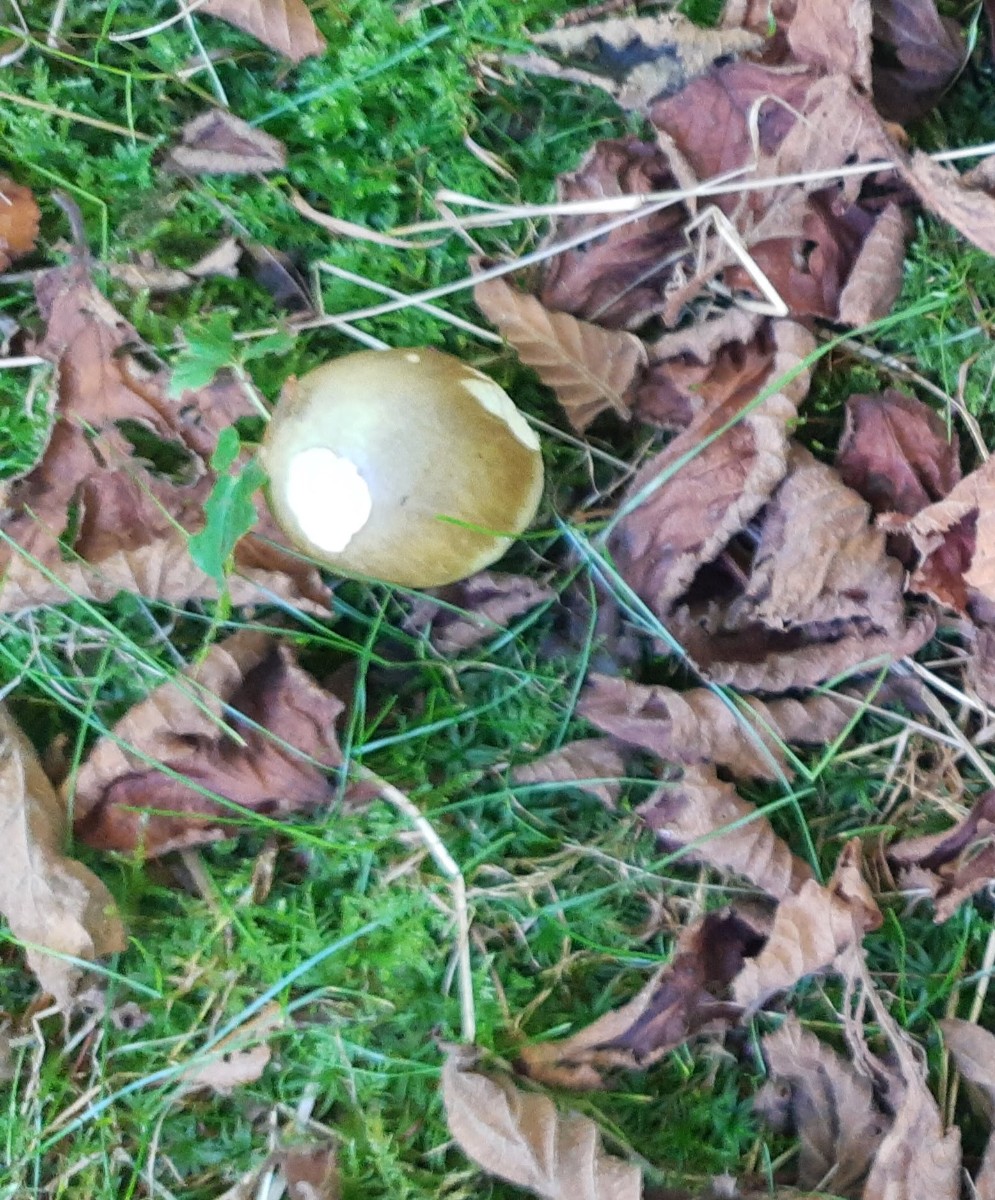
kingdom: Fungi
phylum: Basidiomycota
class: Agaricomycetes
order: Agaricales
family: Amanitaceae
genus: Amanita
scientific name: Amanita phalloides
